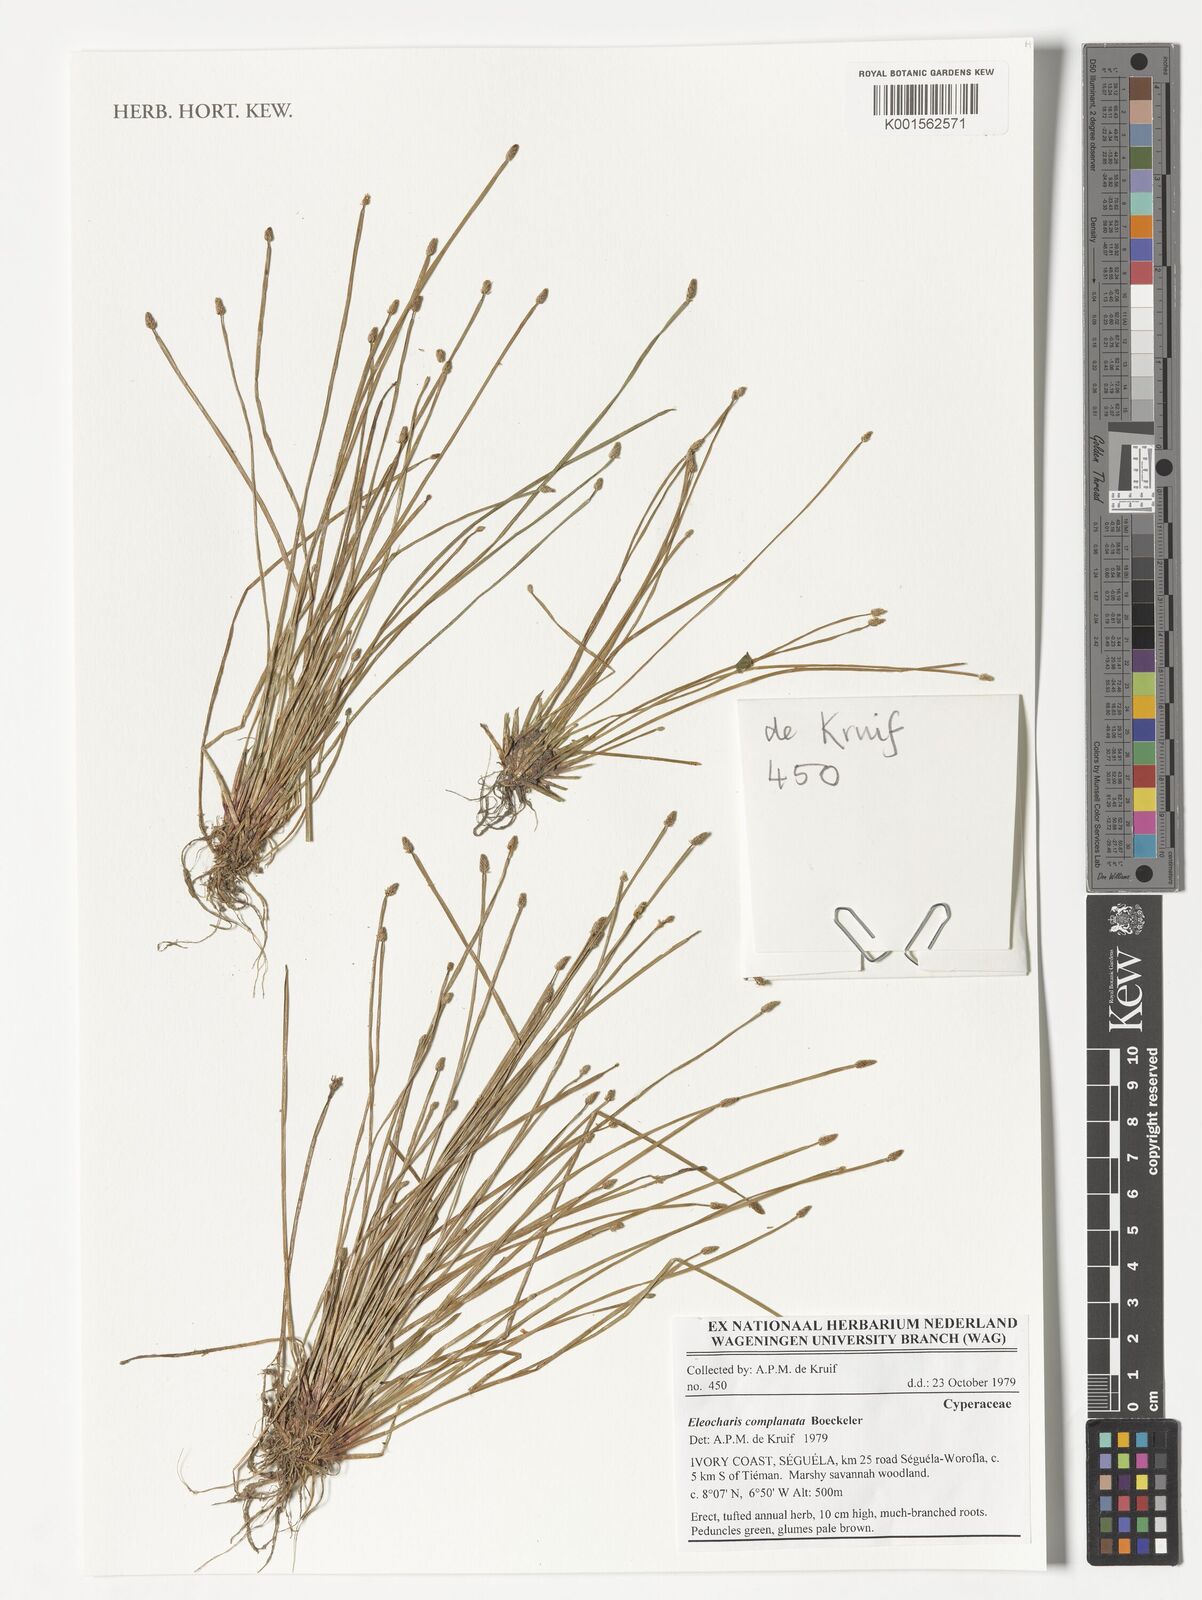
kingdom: Plantae
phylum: Tracheophyta
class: Liliopsida
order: Poales
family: Cyperaceae
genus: Eleocharis
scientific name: Eleocharis complanata
